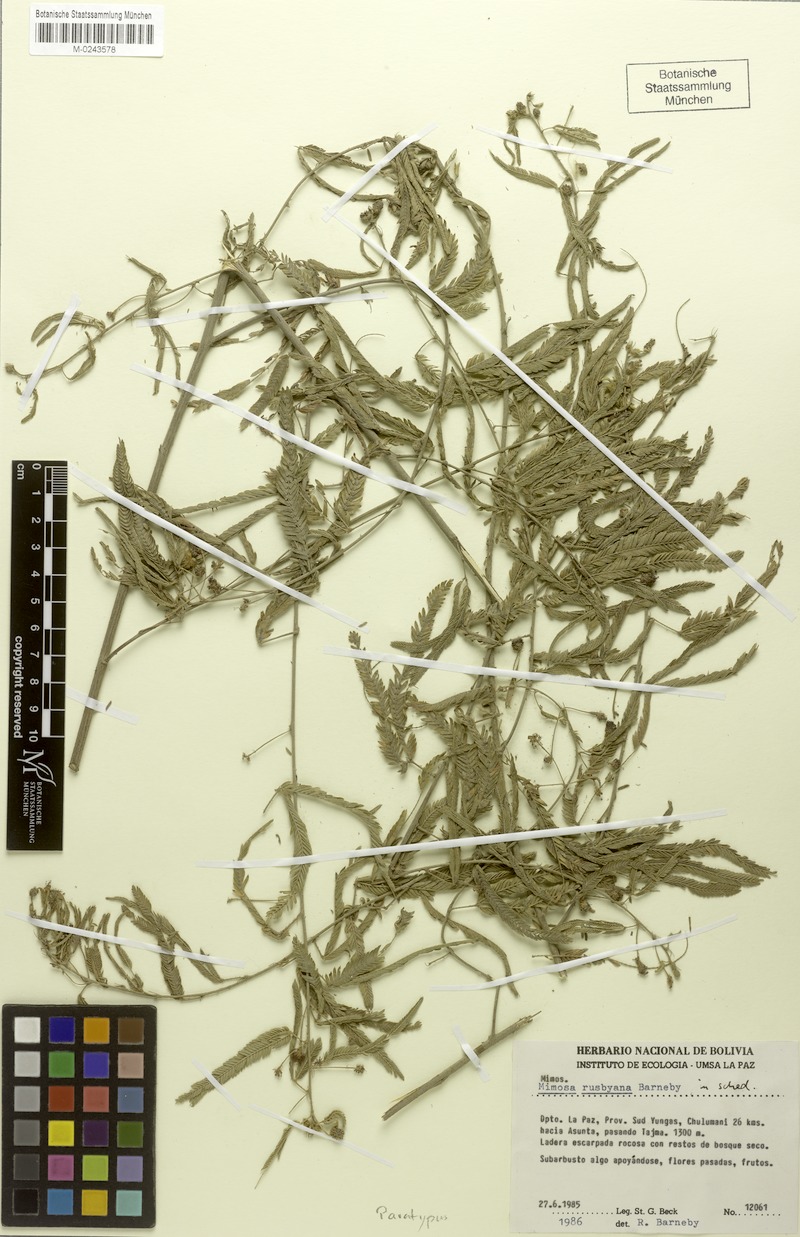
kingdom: Plantae
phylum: Tracheophyta
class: Magnoliopsida
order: Fabales
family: Fabaceae
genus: Mimosa
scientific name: Mimosa rusbyana
